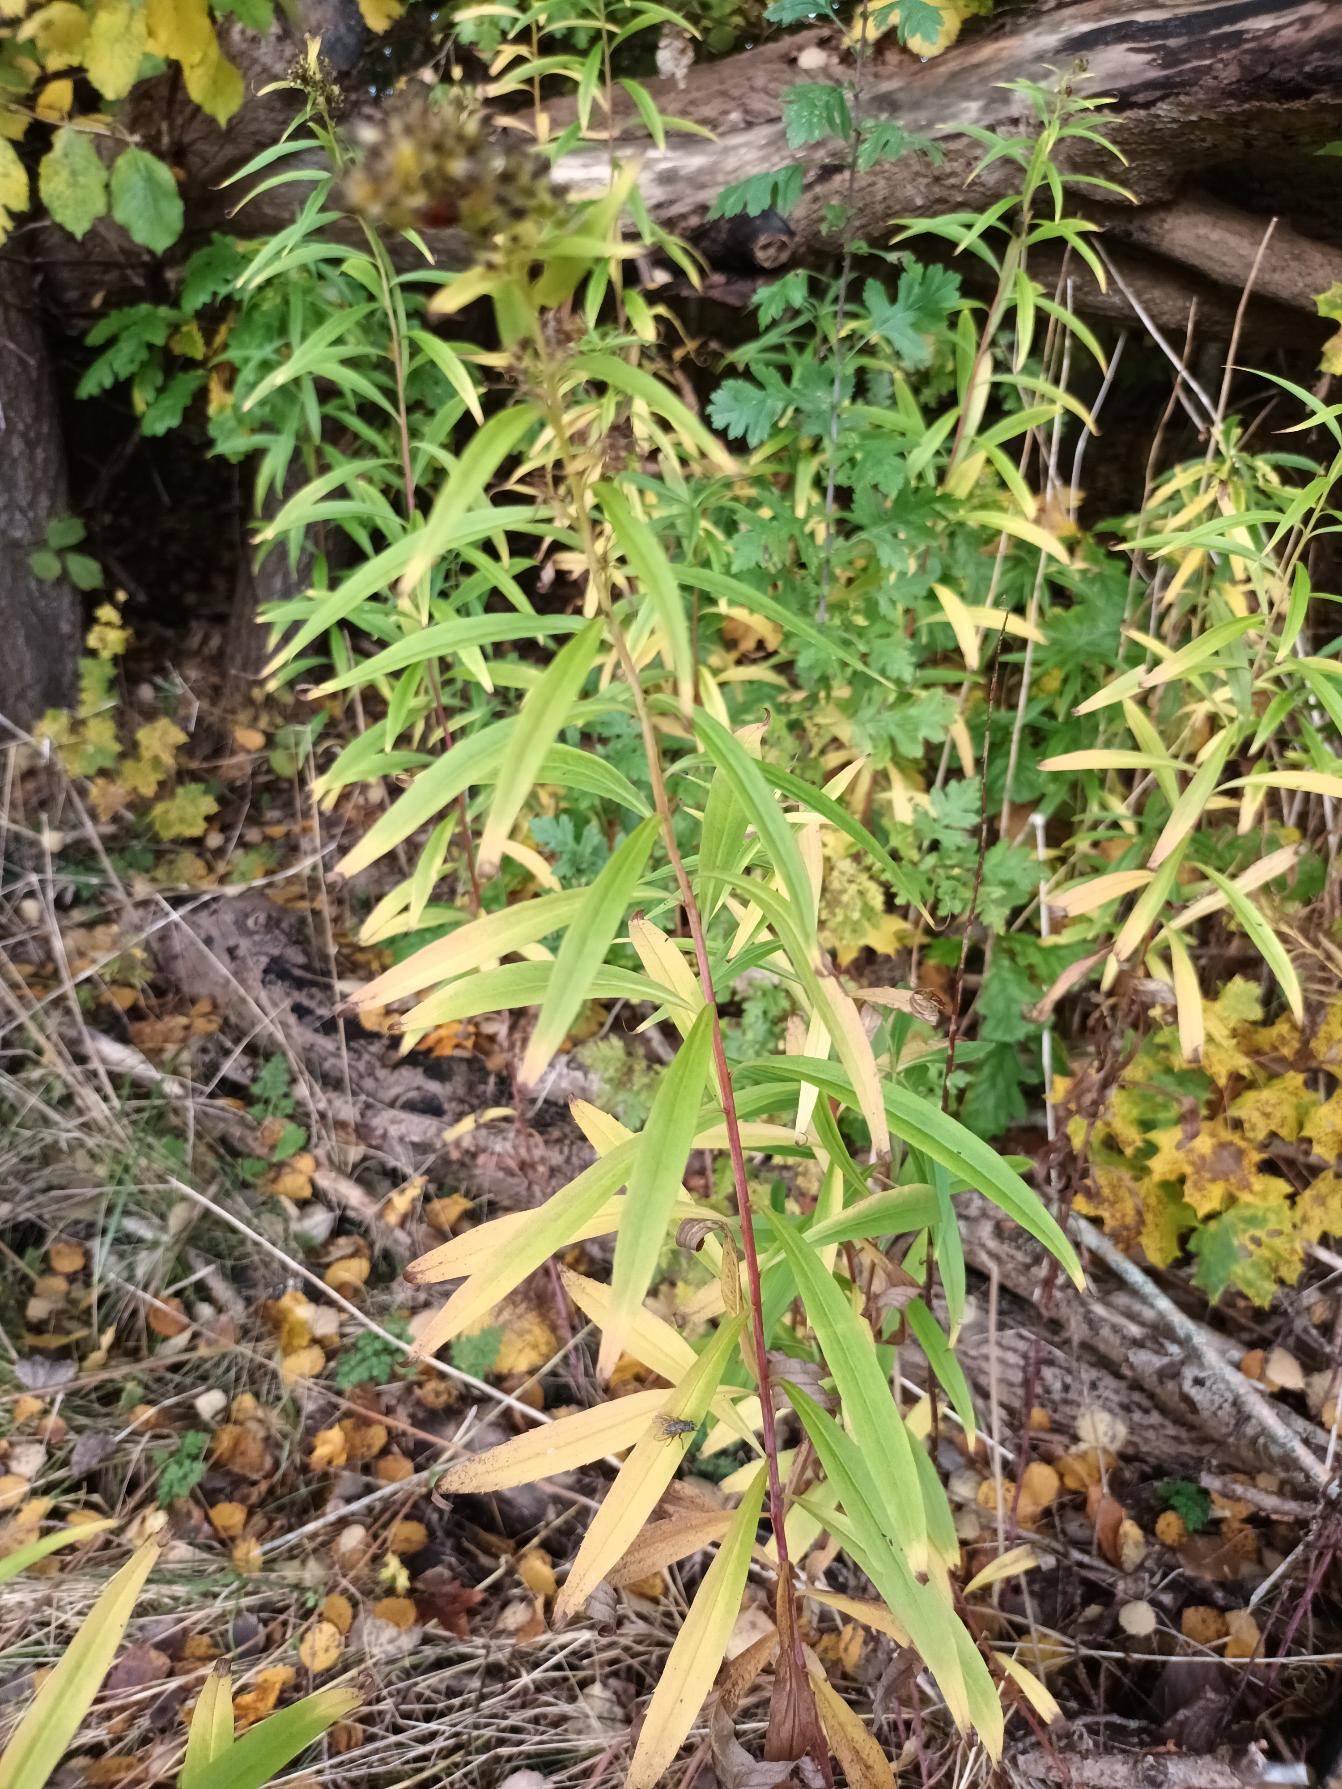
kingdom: Plantae
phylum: Tracheophyta
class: Magnoliopsida
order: Asterales
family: Asteraceae
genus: Solidago
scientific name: Solidago gigantea
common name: Sildig gyldenris
